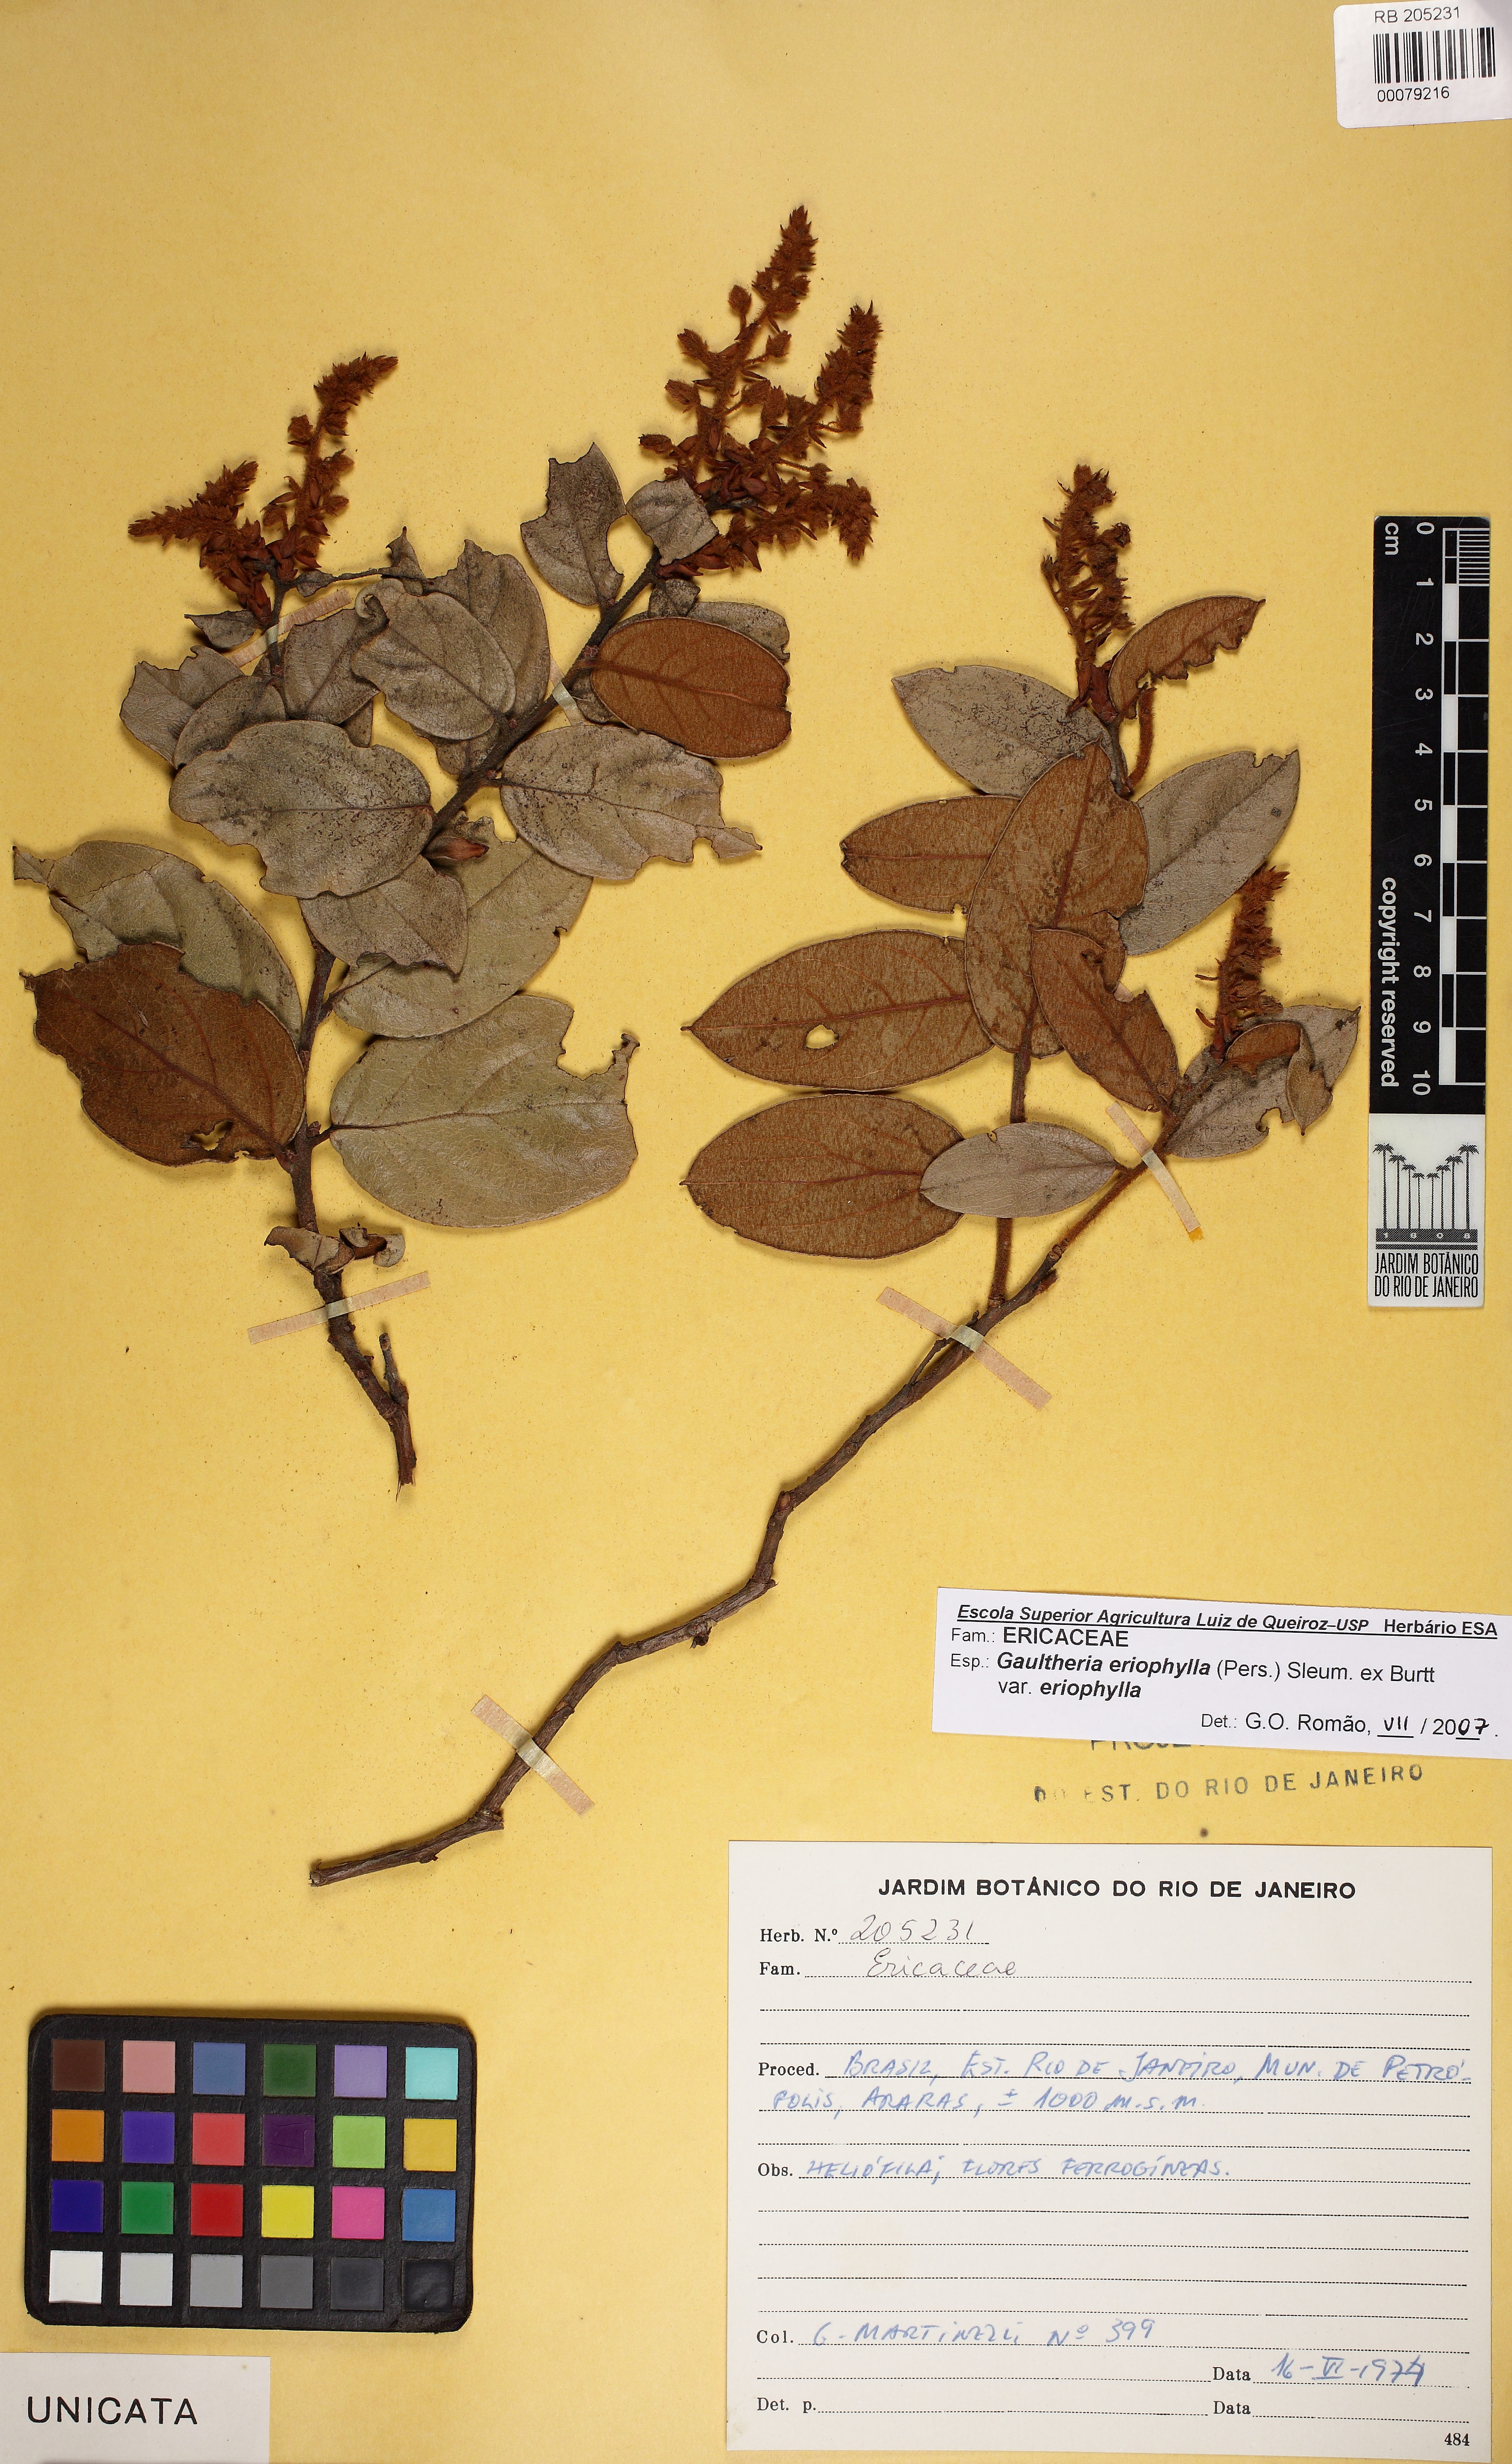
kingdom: Plantae
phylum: Tracheophyta
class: Magnoliopsida
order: Ericales
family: Ericaceae
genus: Gaultheria
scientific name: Gaultheria eriophylla
